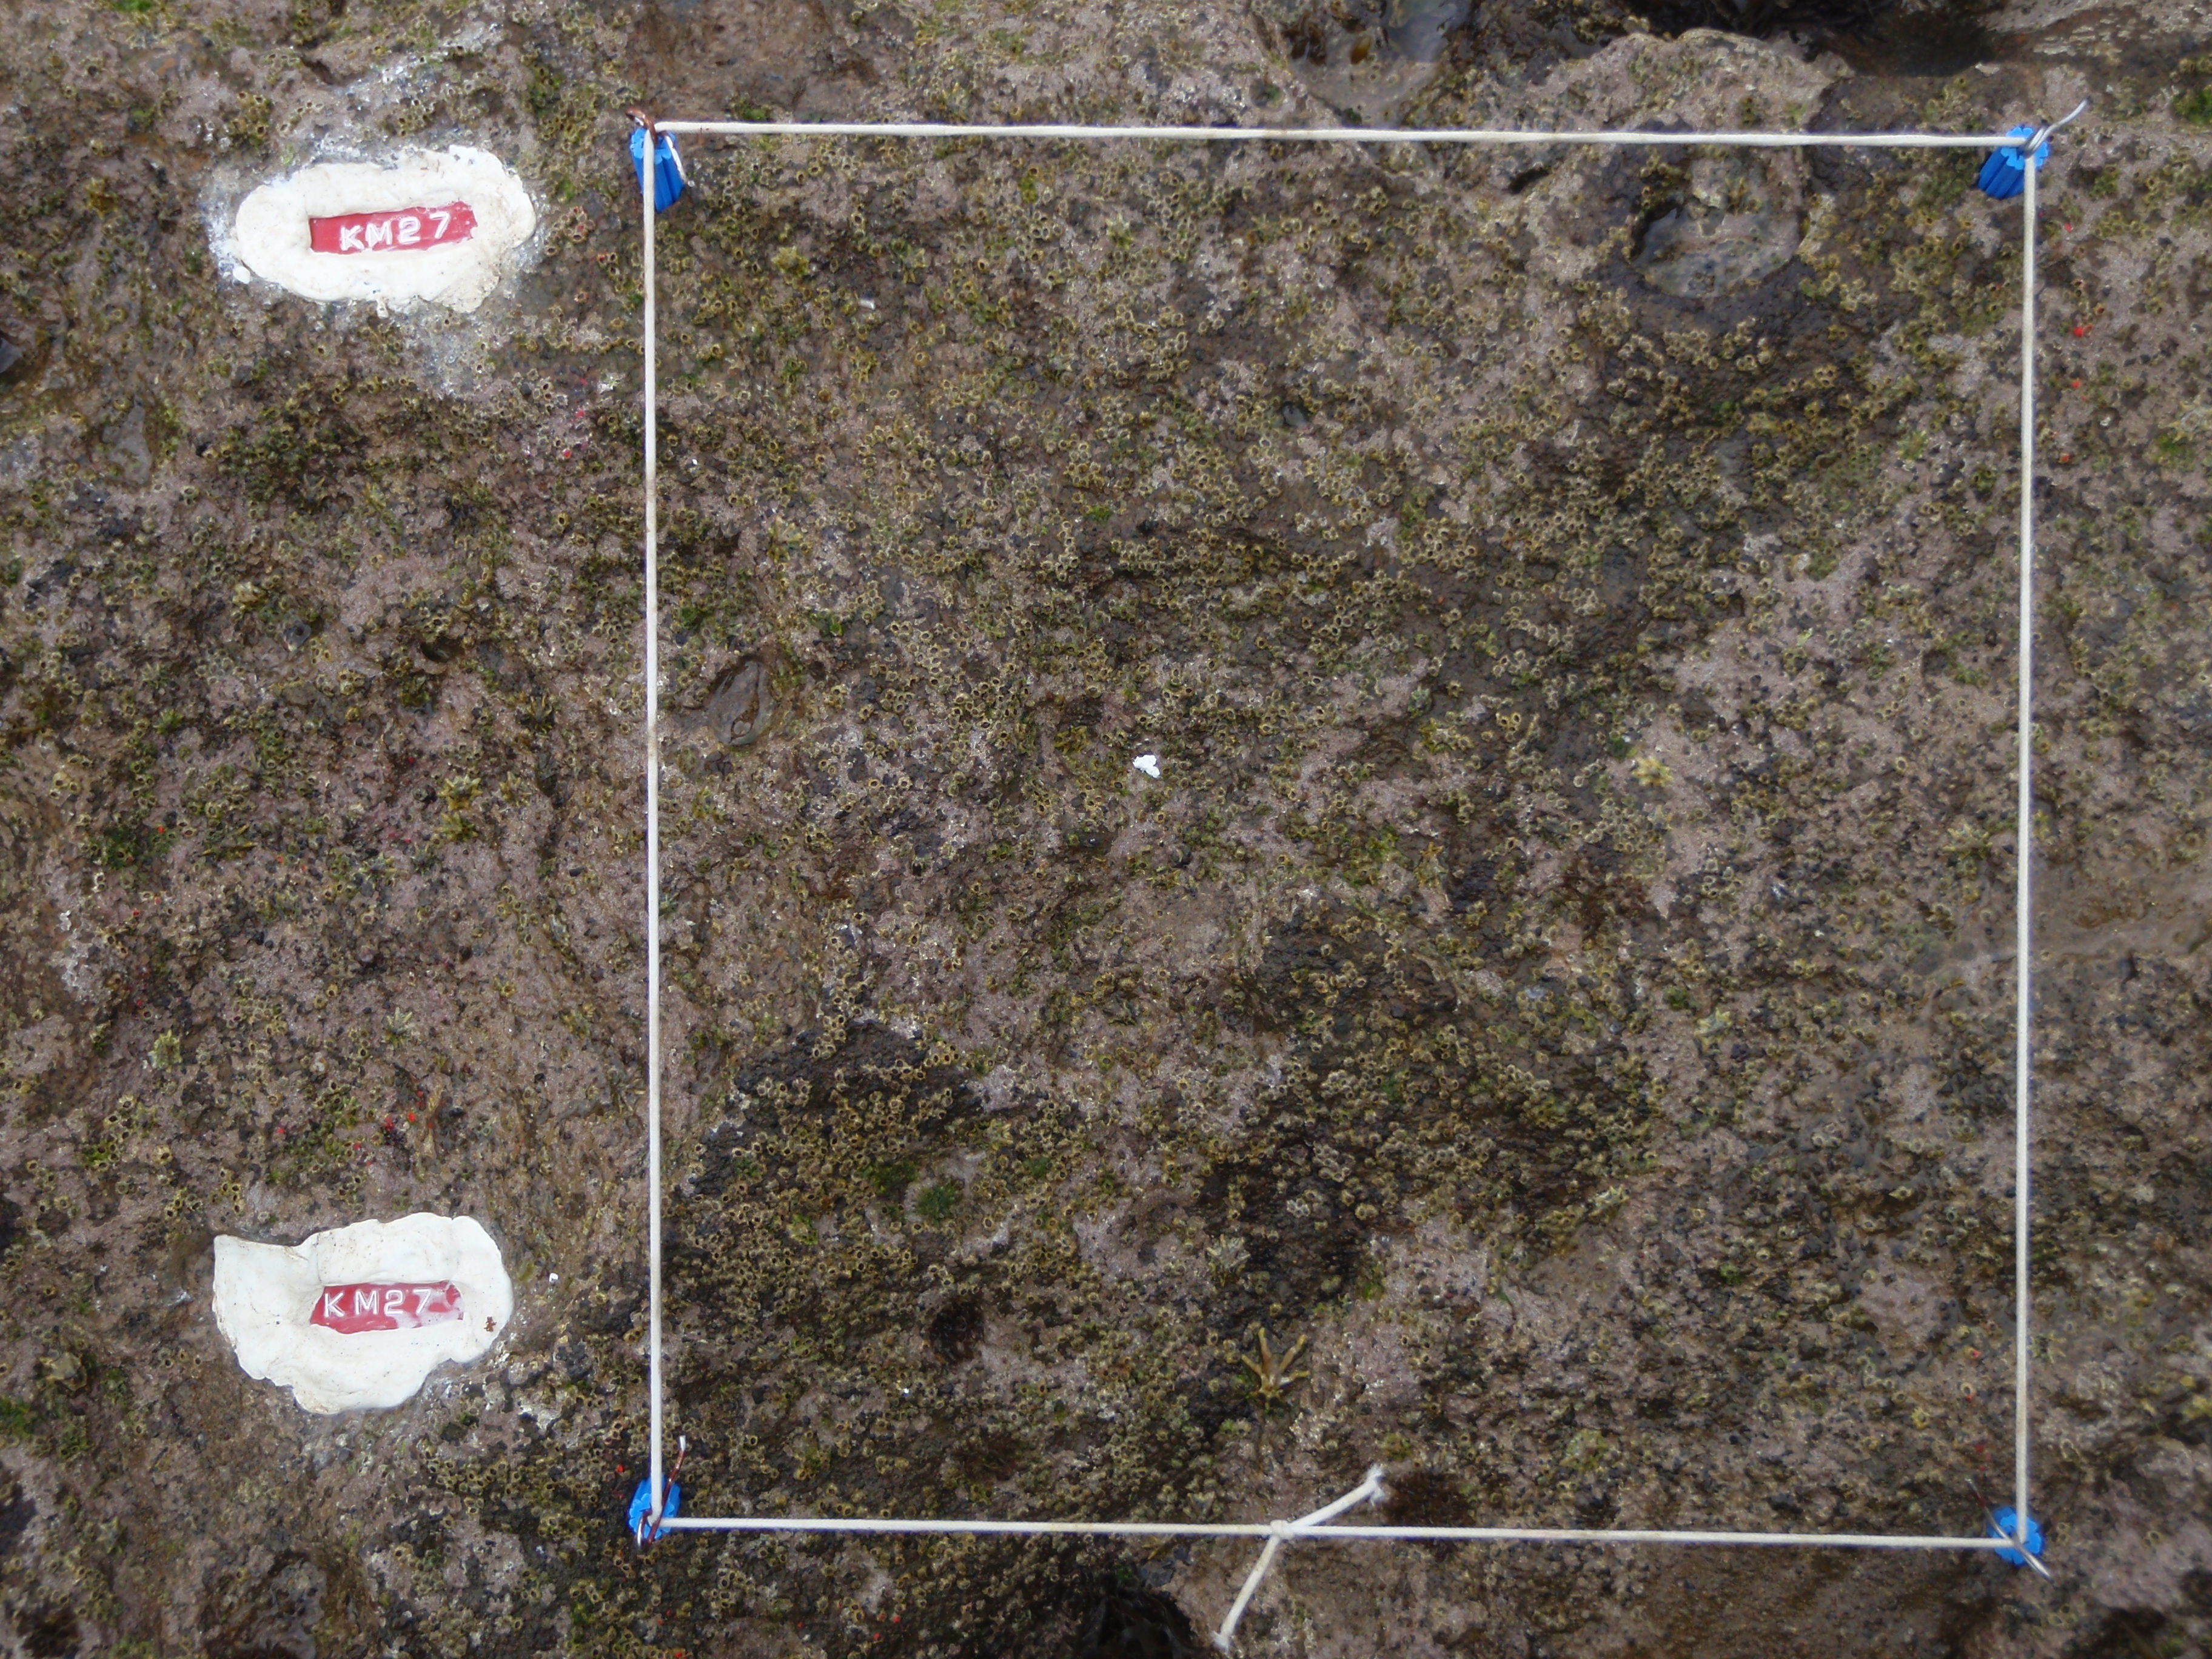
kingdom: Animalia
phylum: Arthropoda
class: Maxillopoda
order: Sessilia
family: Chthamalidae
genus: Chthamalus
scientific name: Chthamalus challengeri
